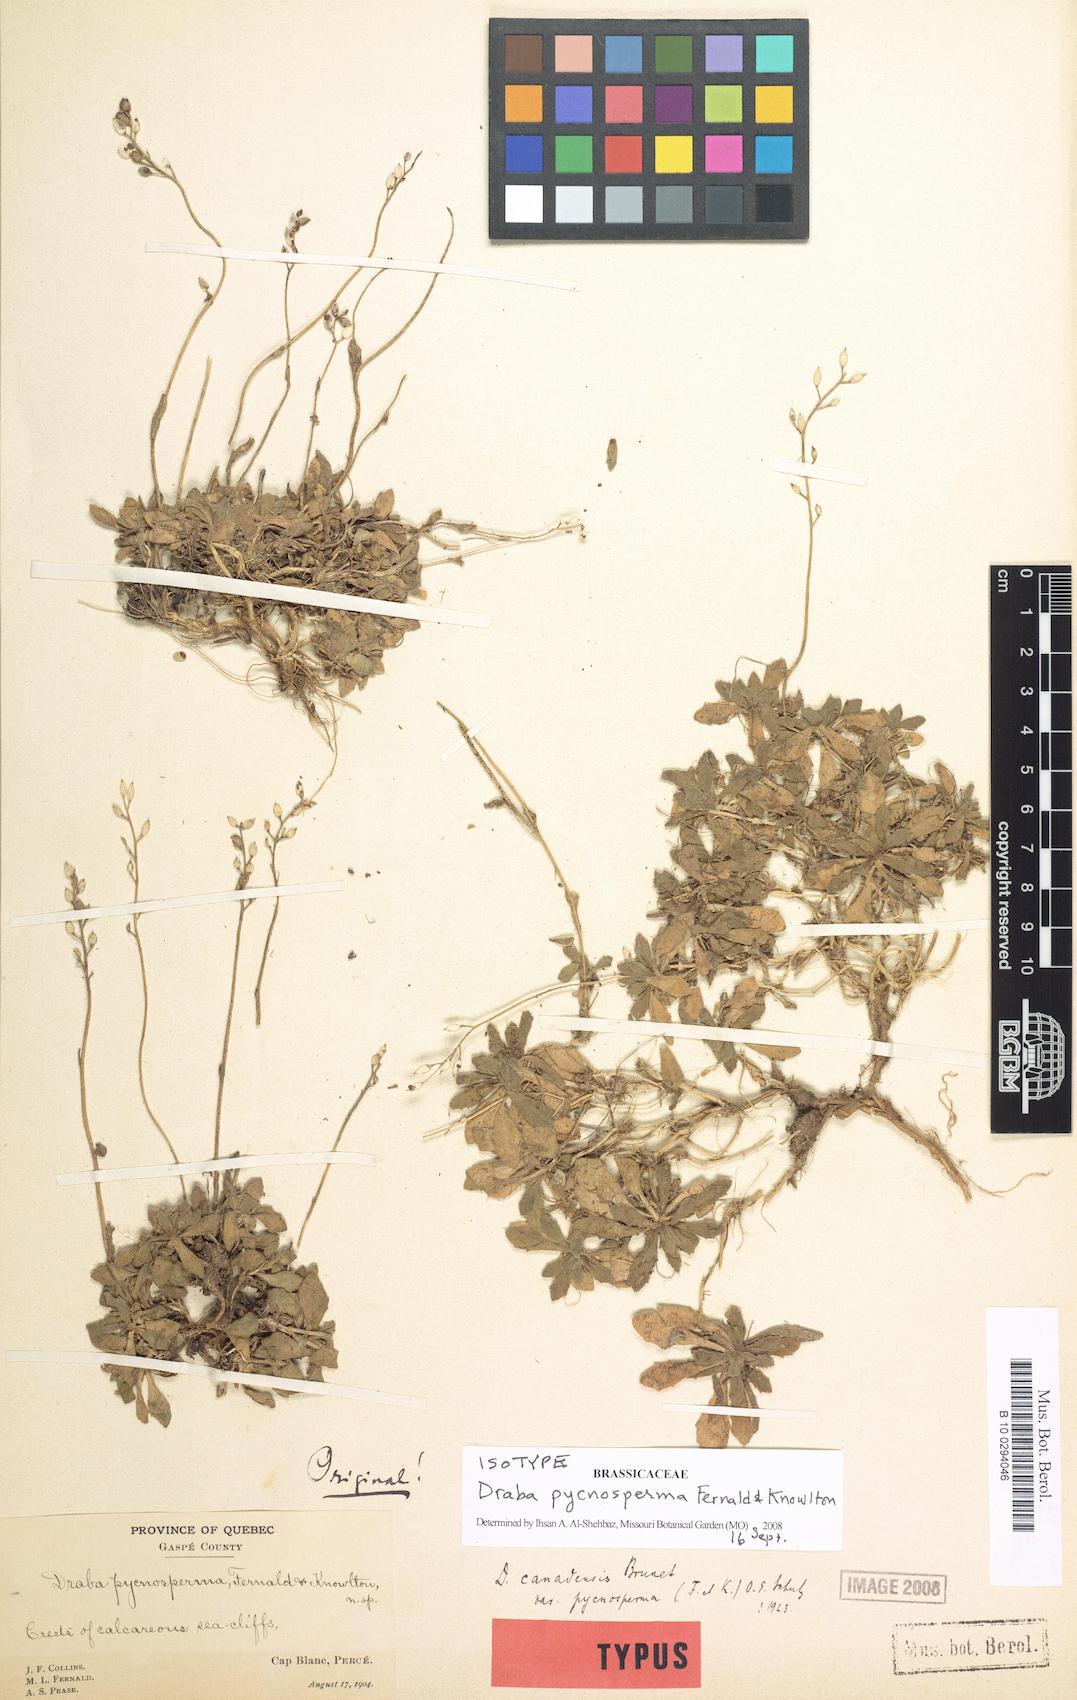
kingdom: Plantae
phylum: Tracheophyta
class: Magnoliopsida
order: Brassicales
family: Brassicaceae
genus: Draba
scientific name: Draba pycnosperma
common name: Dense draba
